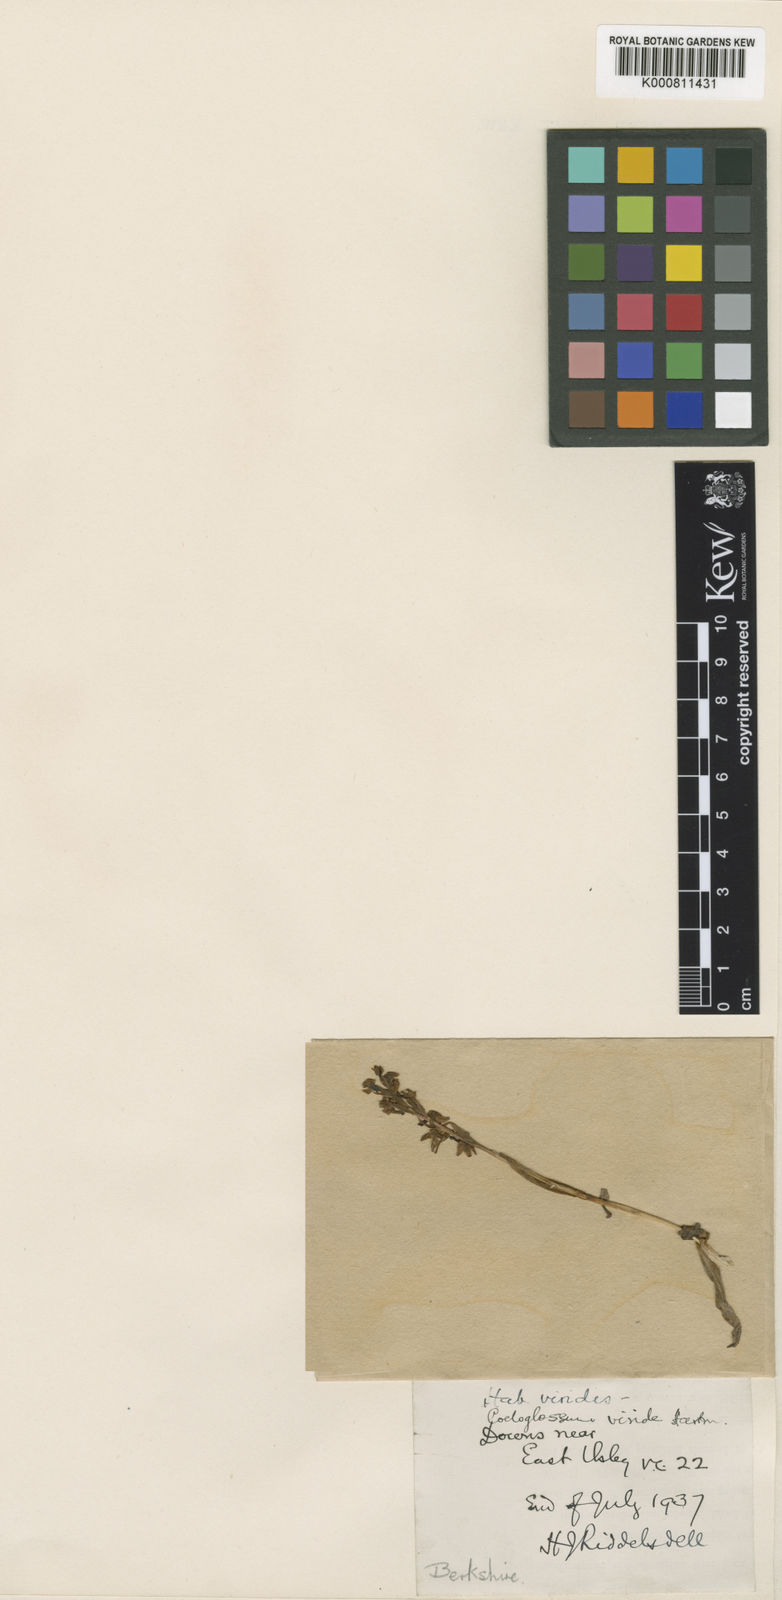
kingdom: Plantae
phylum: Tracheophyta
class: Liliopsida
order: Asparagales
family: Orchidaceae
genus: Dactylorhiza
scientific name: Dactylorhiza viridis
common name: Longbract frog orchid
